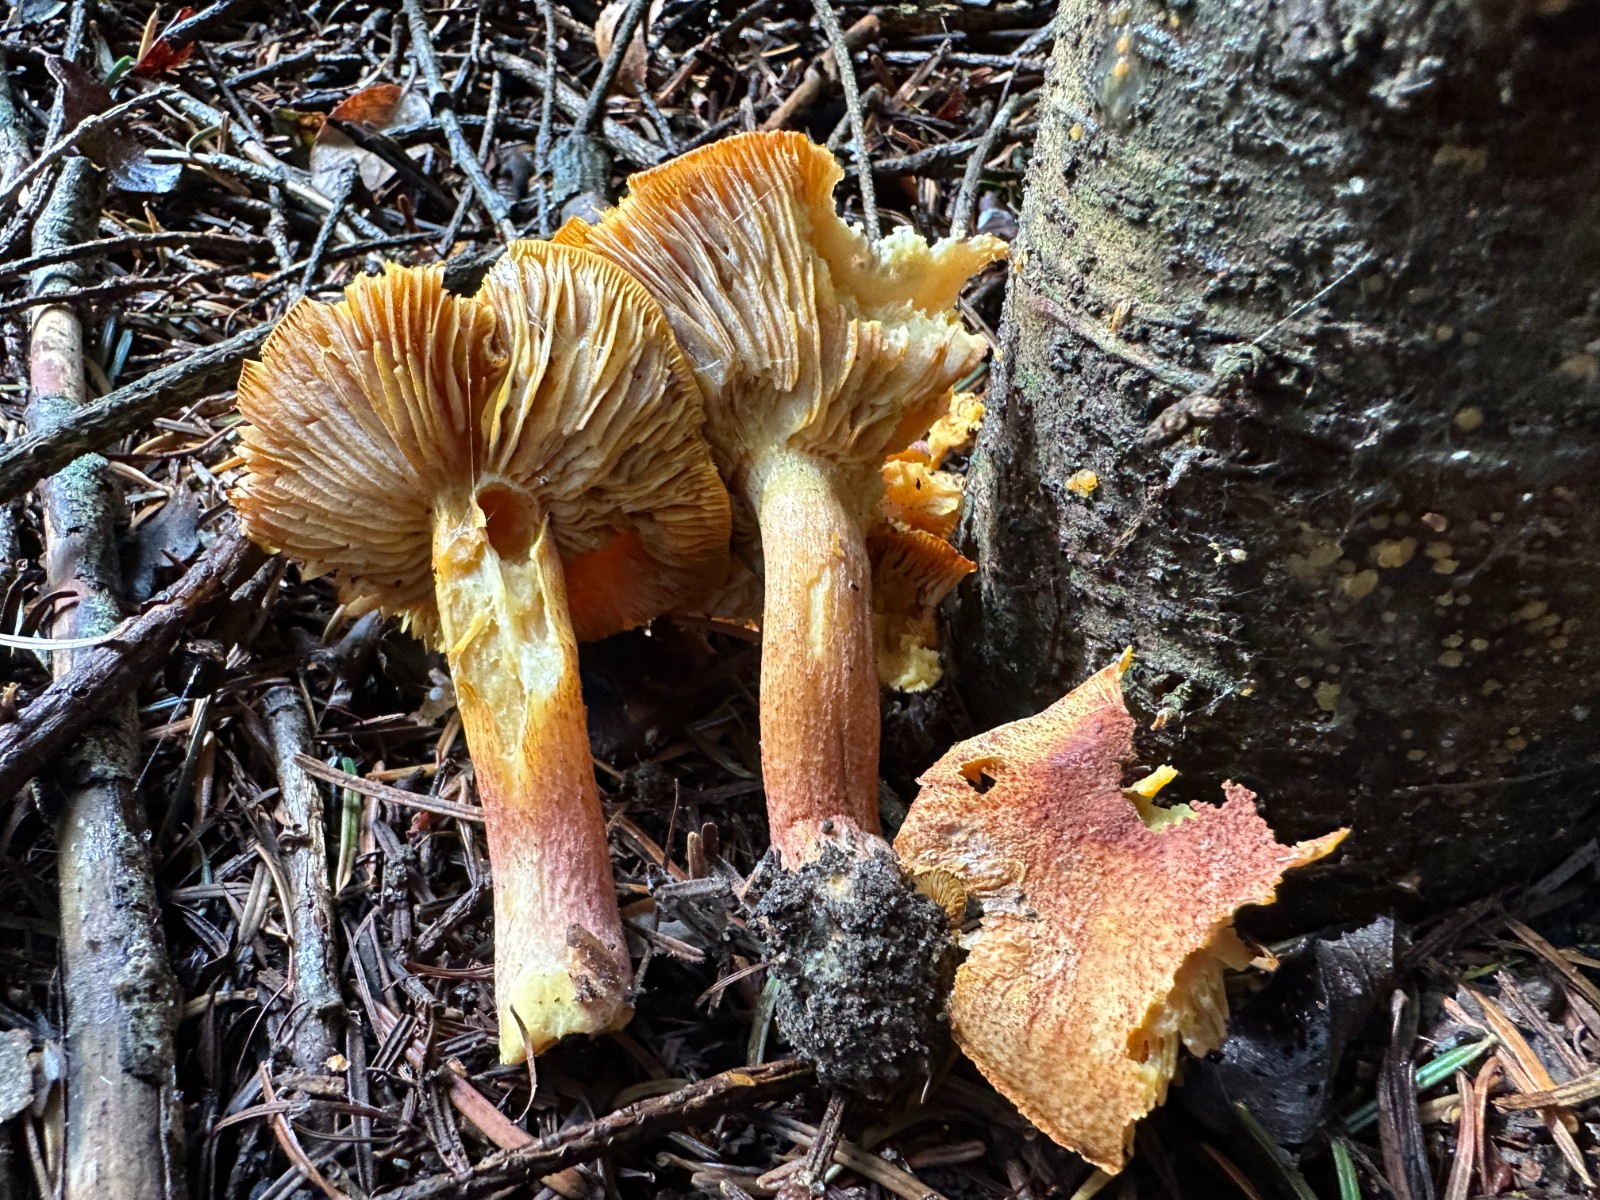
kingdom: Fungi
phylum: Basidiomycota
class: Agaricomycetes
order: Agaricales
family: Tricholomataceae
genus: Tricholomopsis
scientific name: Tricholomopsis rutilans
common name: purpur-væbnerhat
